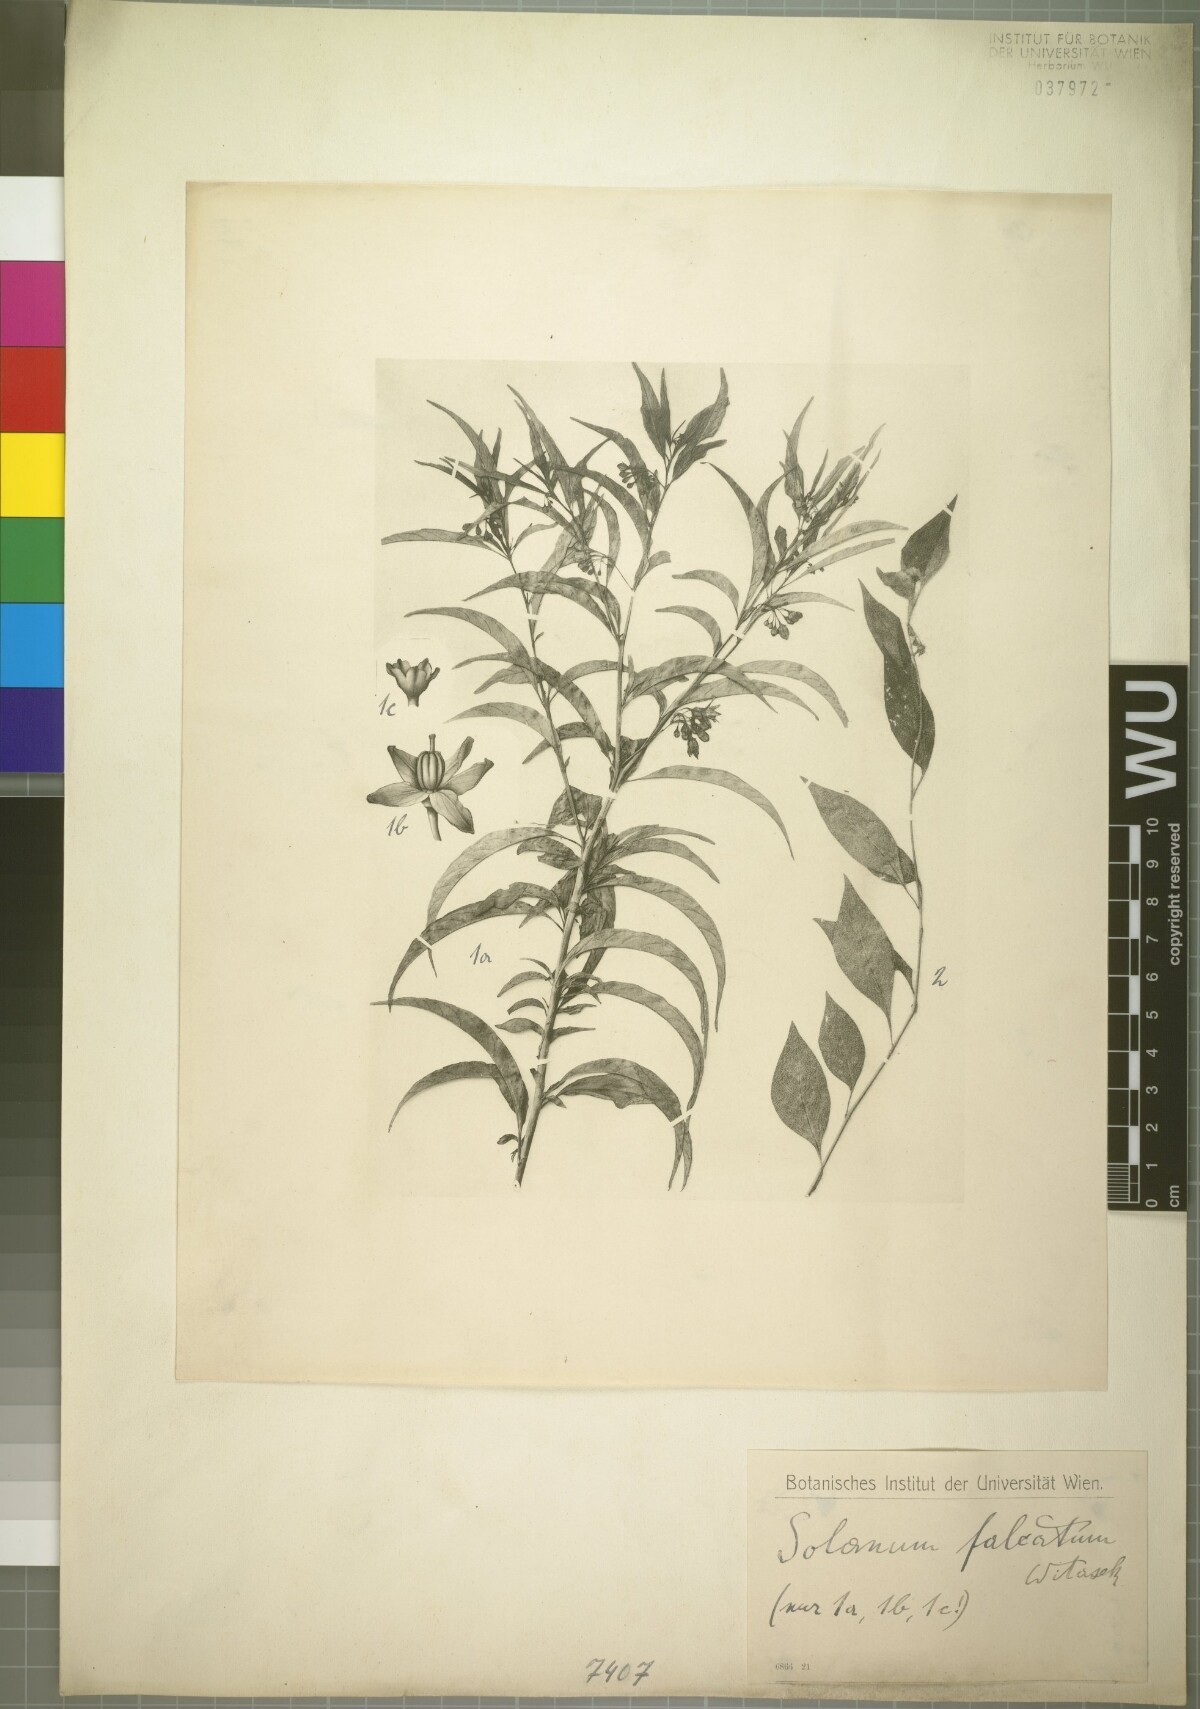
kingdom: Plantae
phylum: Tracheophyta
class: Magnoliopsida
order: Solanales
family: Solanaceae
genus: Solanum
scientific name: Solanum campaniforme
